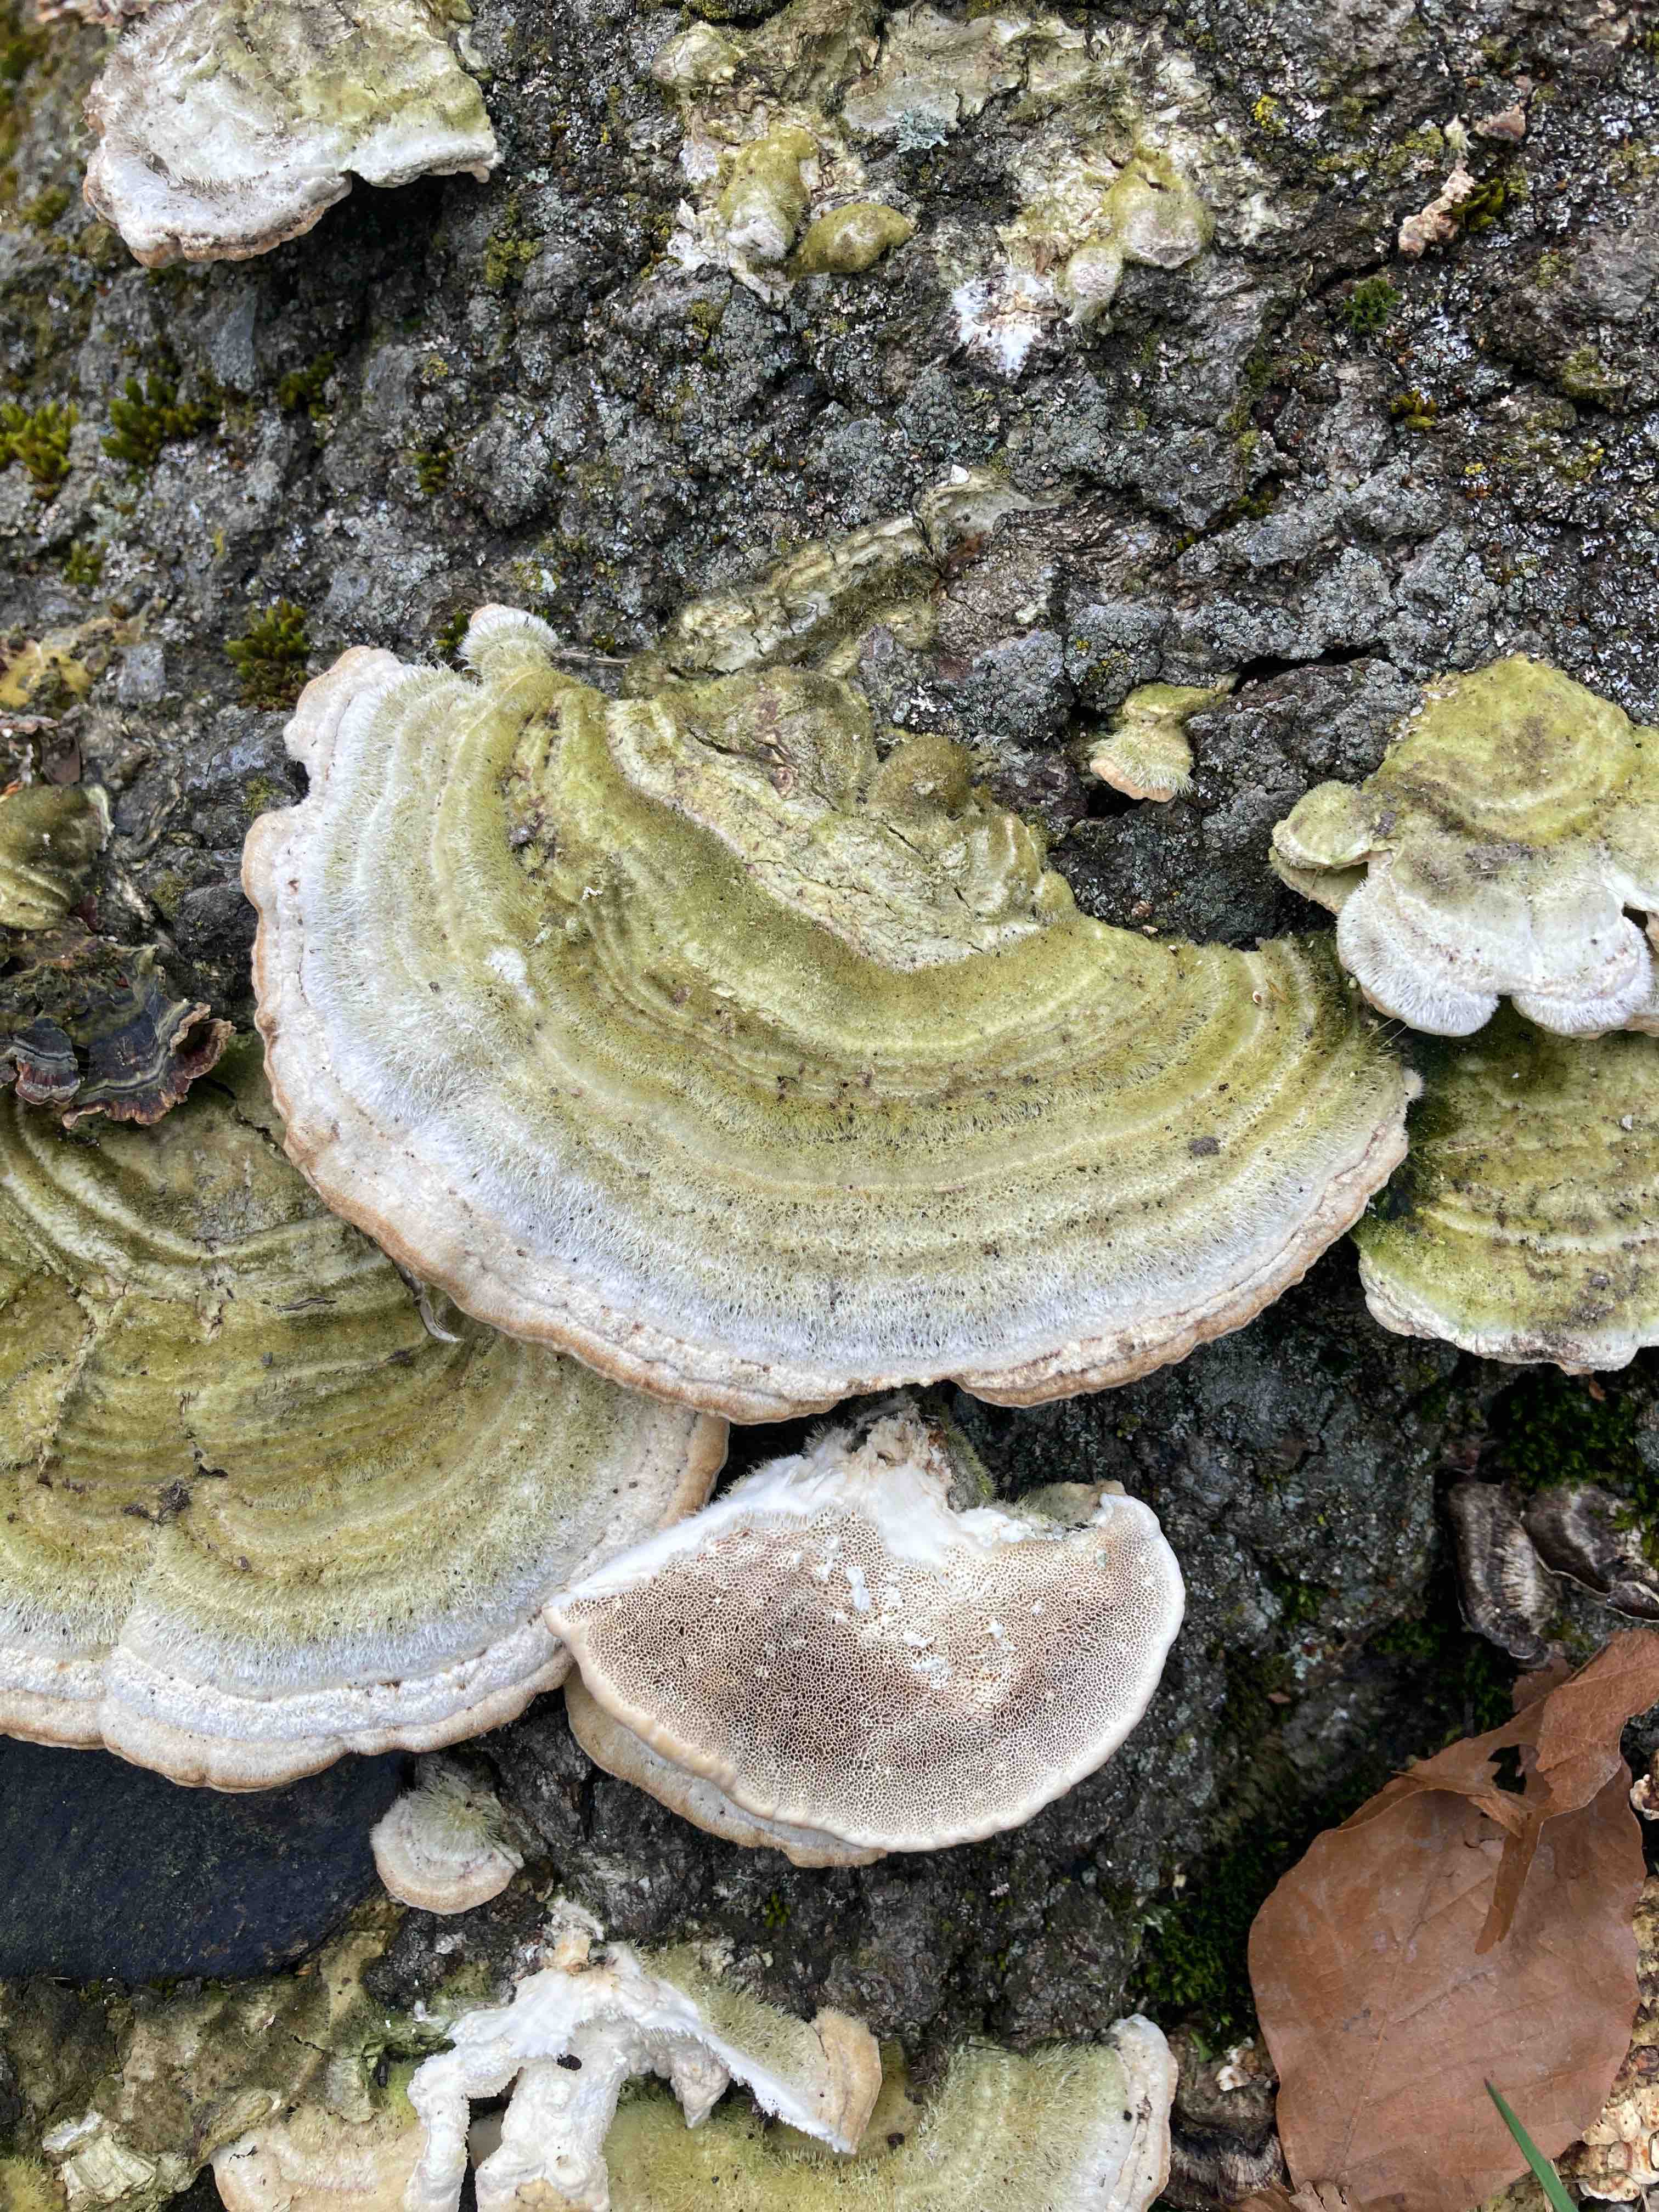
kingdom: Fungi
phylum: Basidiomycota
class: Agaricomycetes
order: Polyporales
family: Polyporaceae
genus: Trametes
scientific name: Trametes hirsuta
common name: håret læderporesvamp
